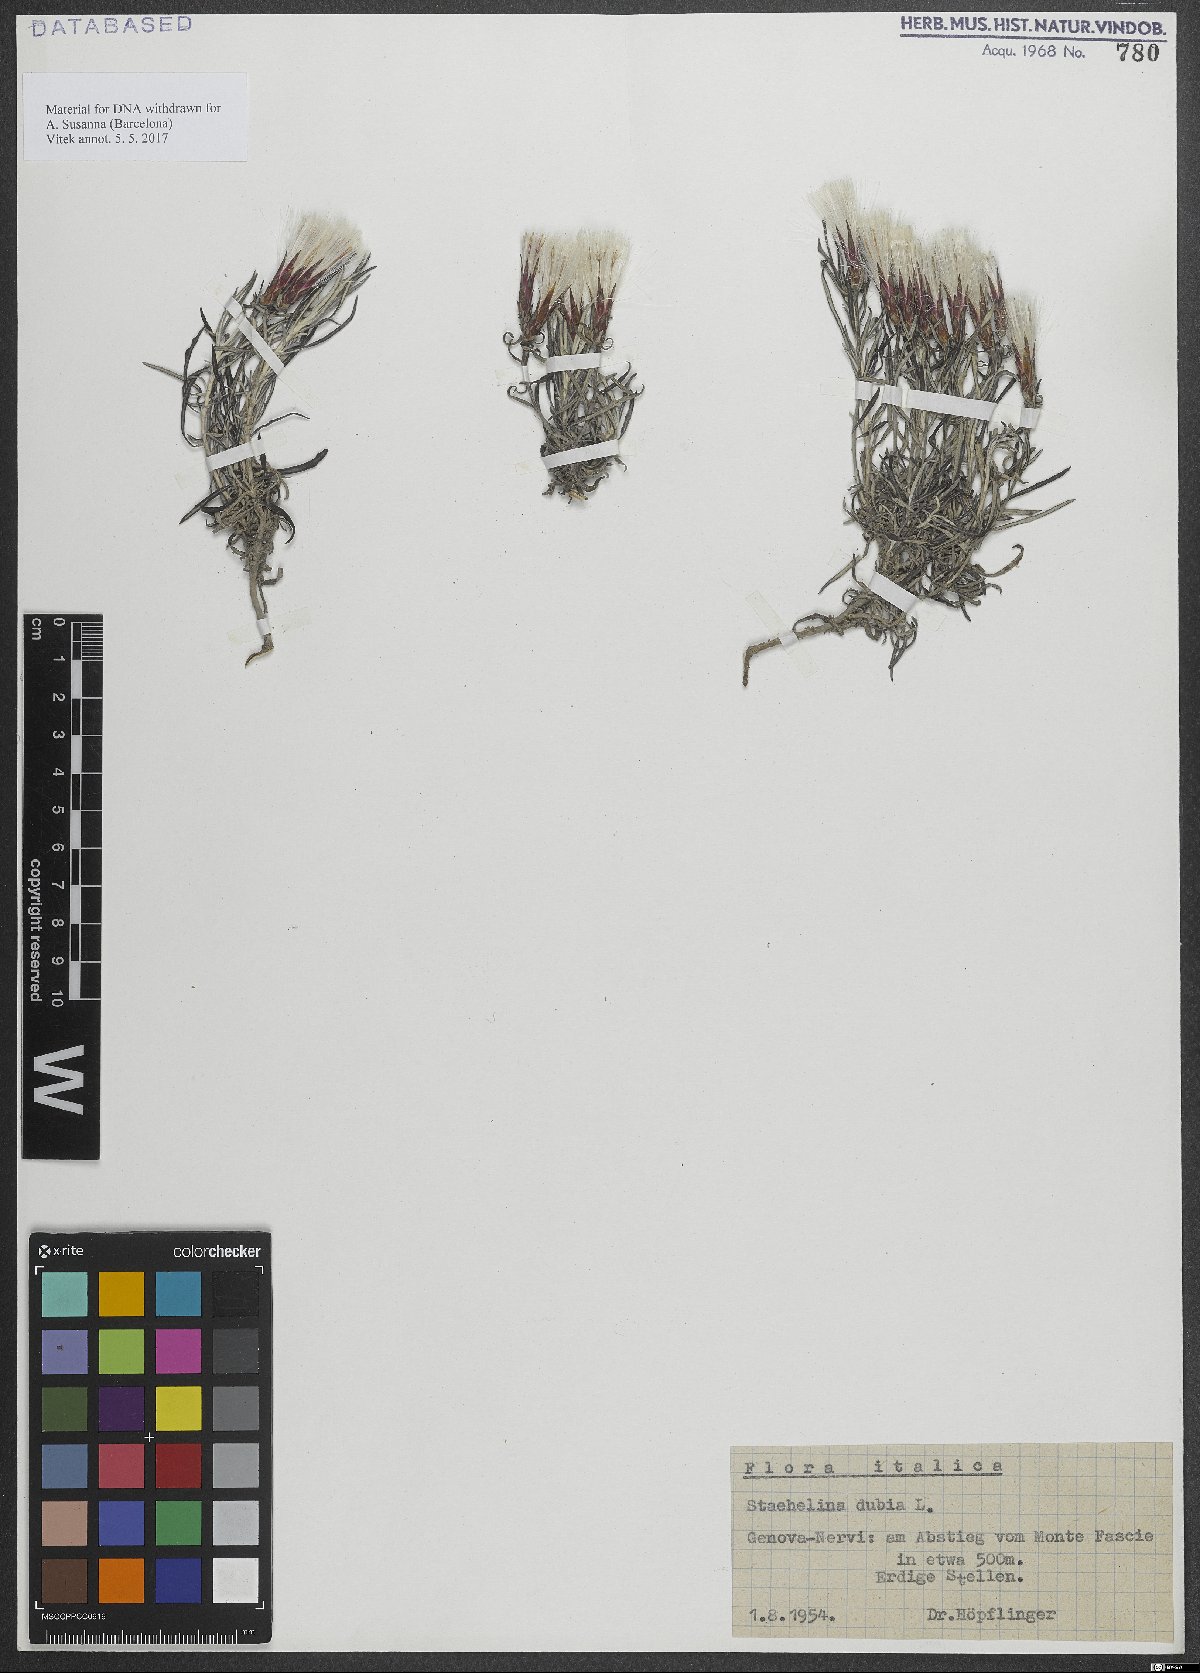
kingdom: Plantae
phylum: Tracheophyta
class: Magnoliopsida
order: Asterales
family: Asteraceae
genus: Staehelina
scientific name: Staehelina dubia
